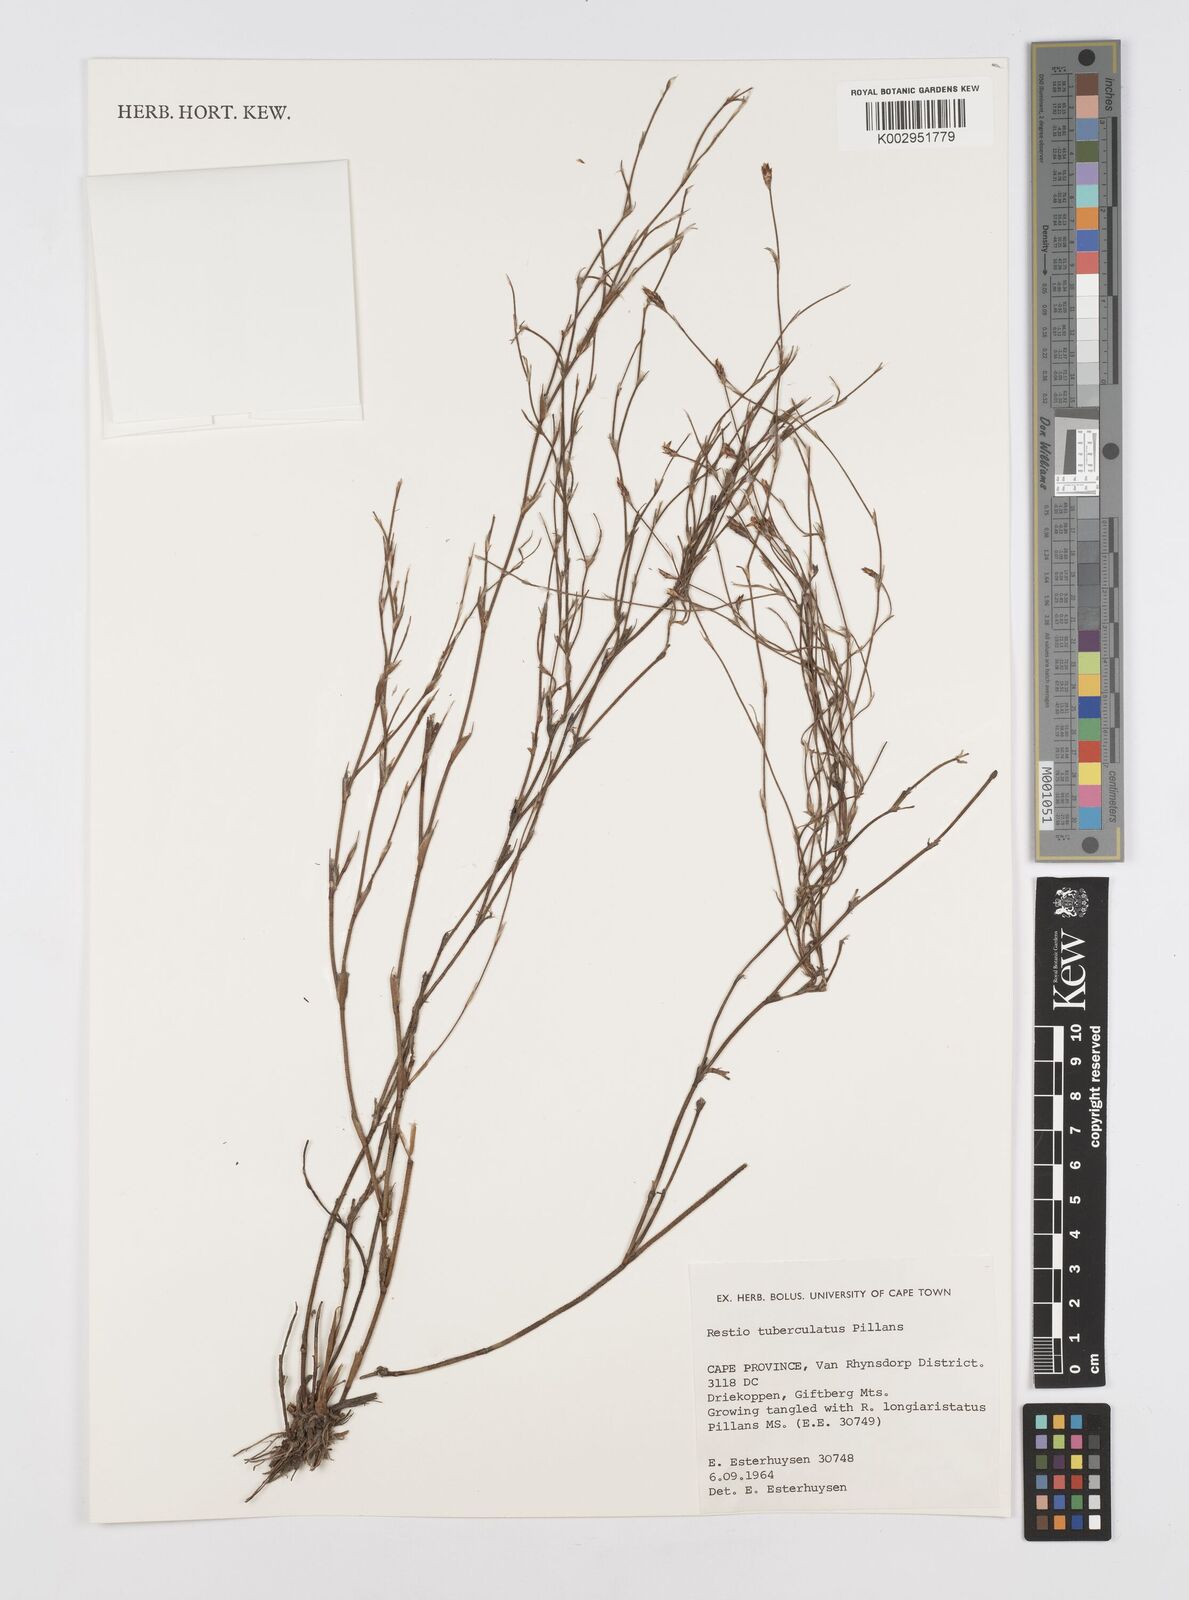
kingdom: Plantae
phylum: Tracheophyta
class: Liliopsida
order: Poales
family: Restionaceae
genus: Restio
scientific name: Restio tuberculatus
